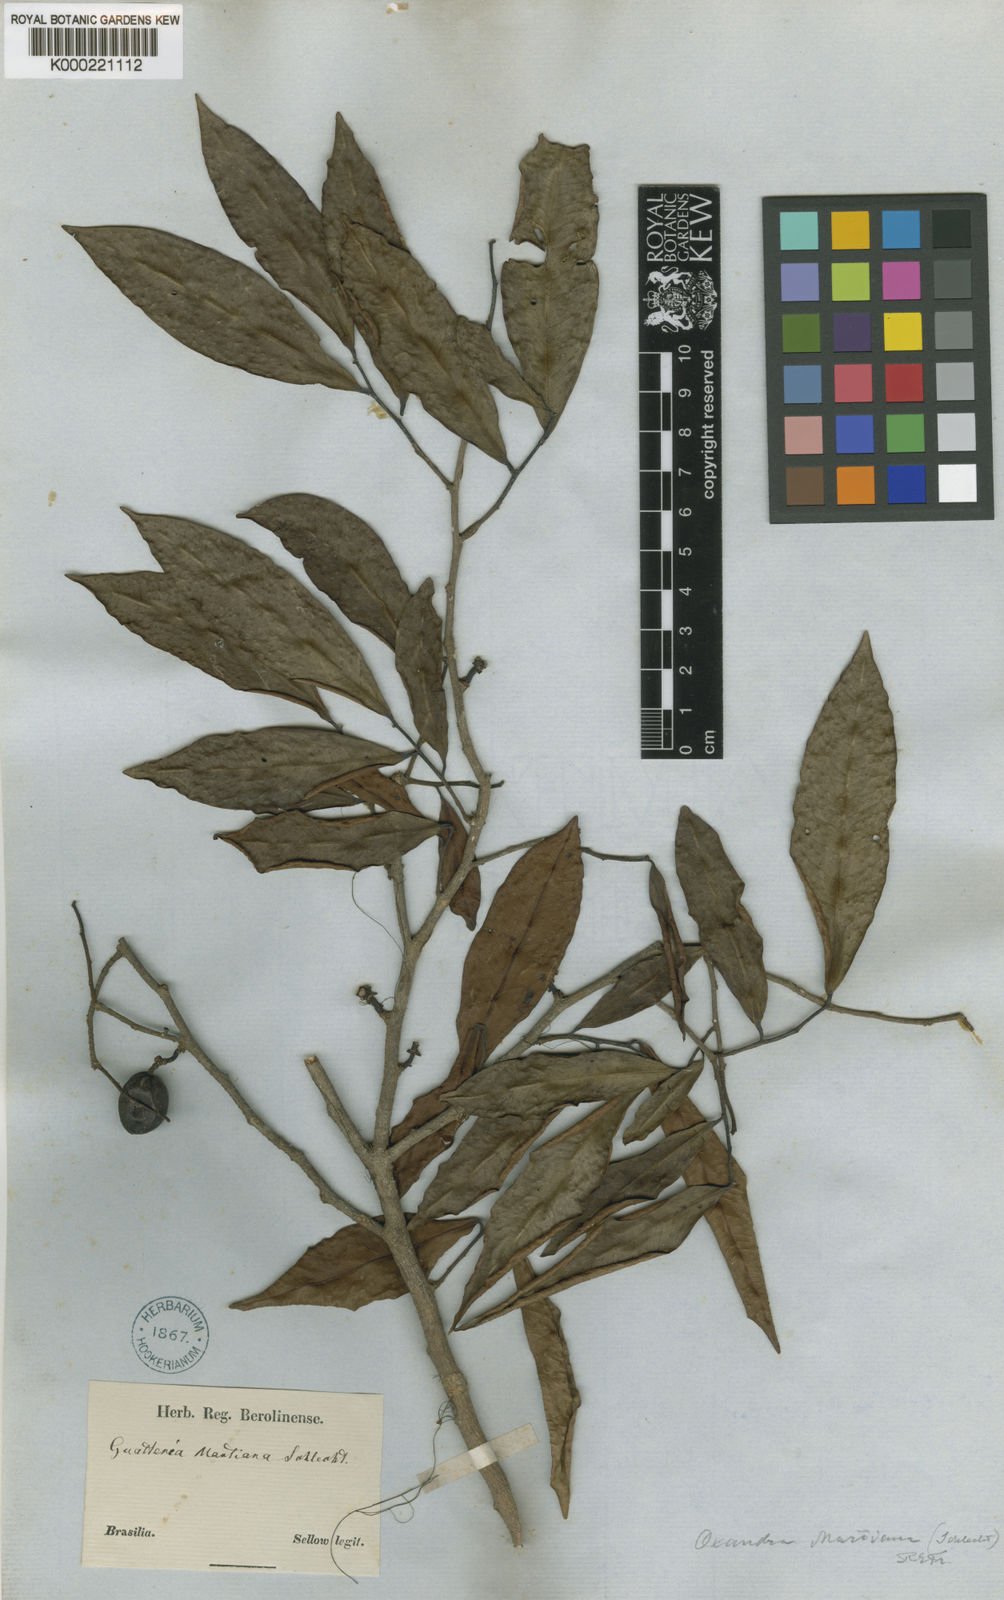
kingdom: Plantae
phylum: Tracheophyta
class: Magnoliopsida
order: Magnoliales
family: Annonaceae
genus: Oxandra
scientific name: Oxandra martiana
